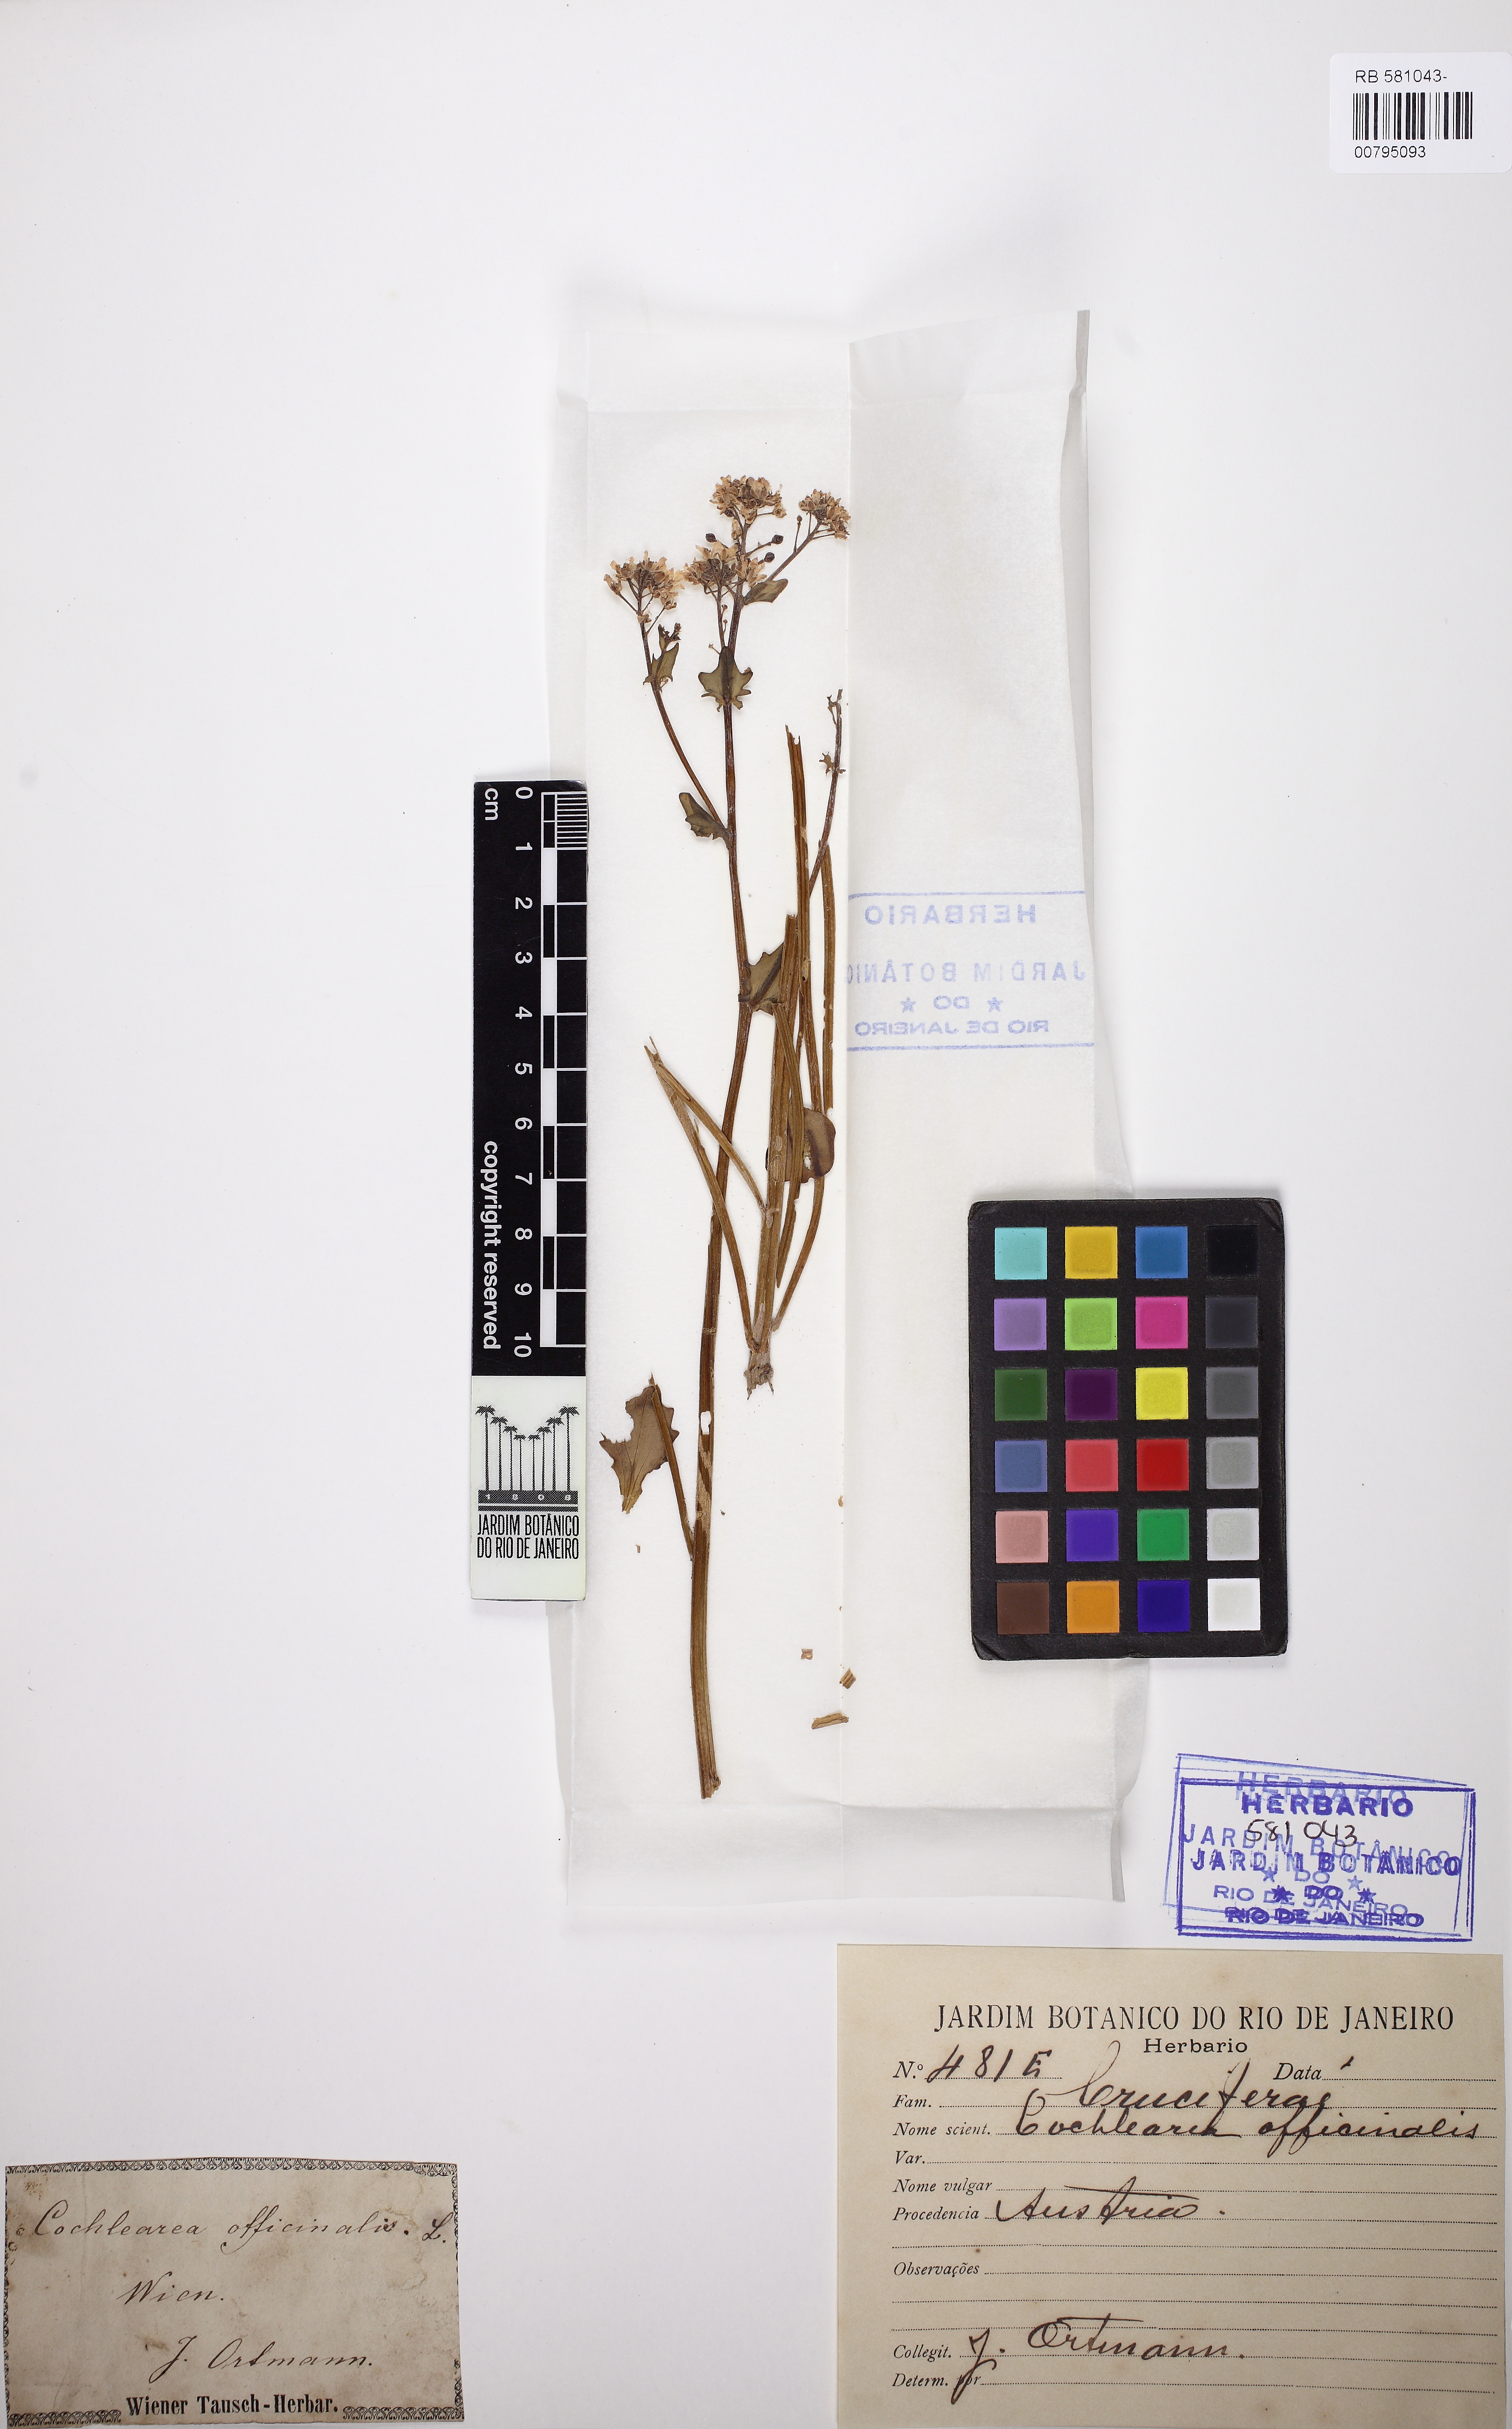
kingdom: Plantae
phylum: Tracheophyta
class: Magnoliopsida
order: Brassicales
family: Brassicaceae
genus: Cochlearia
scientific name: Cochlearia officinalis
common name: Scurvy-grass
